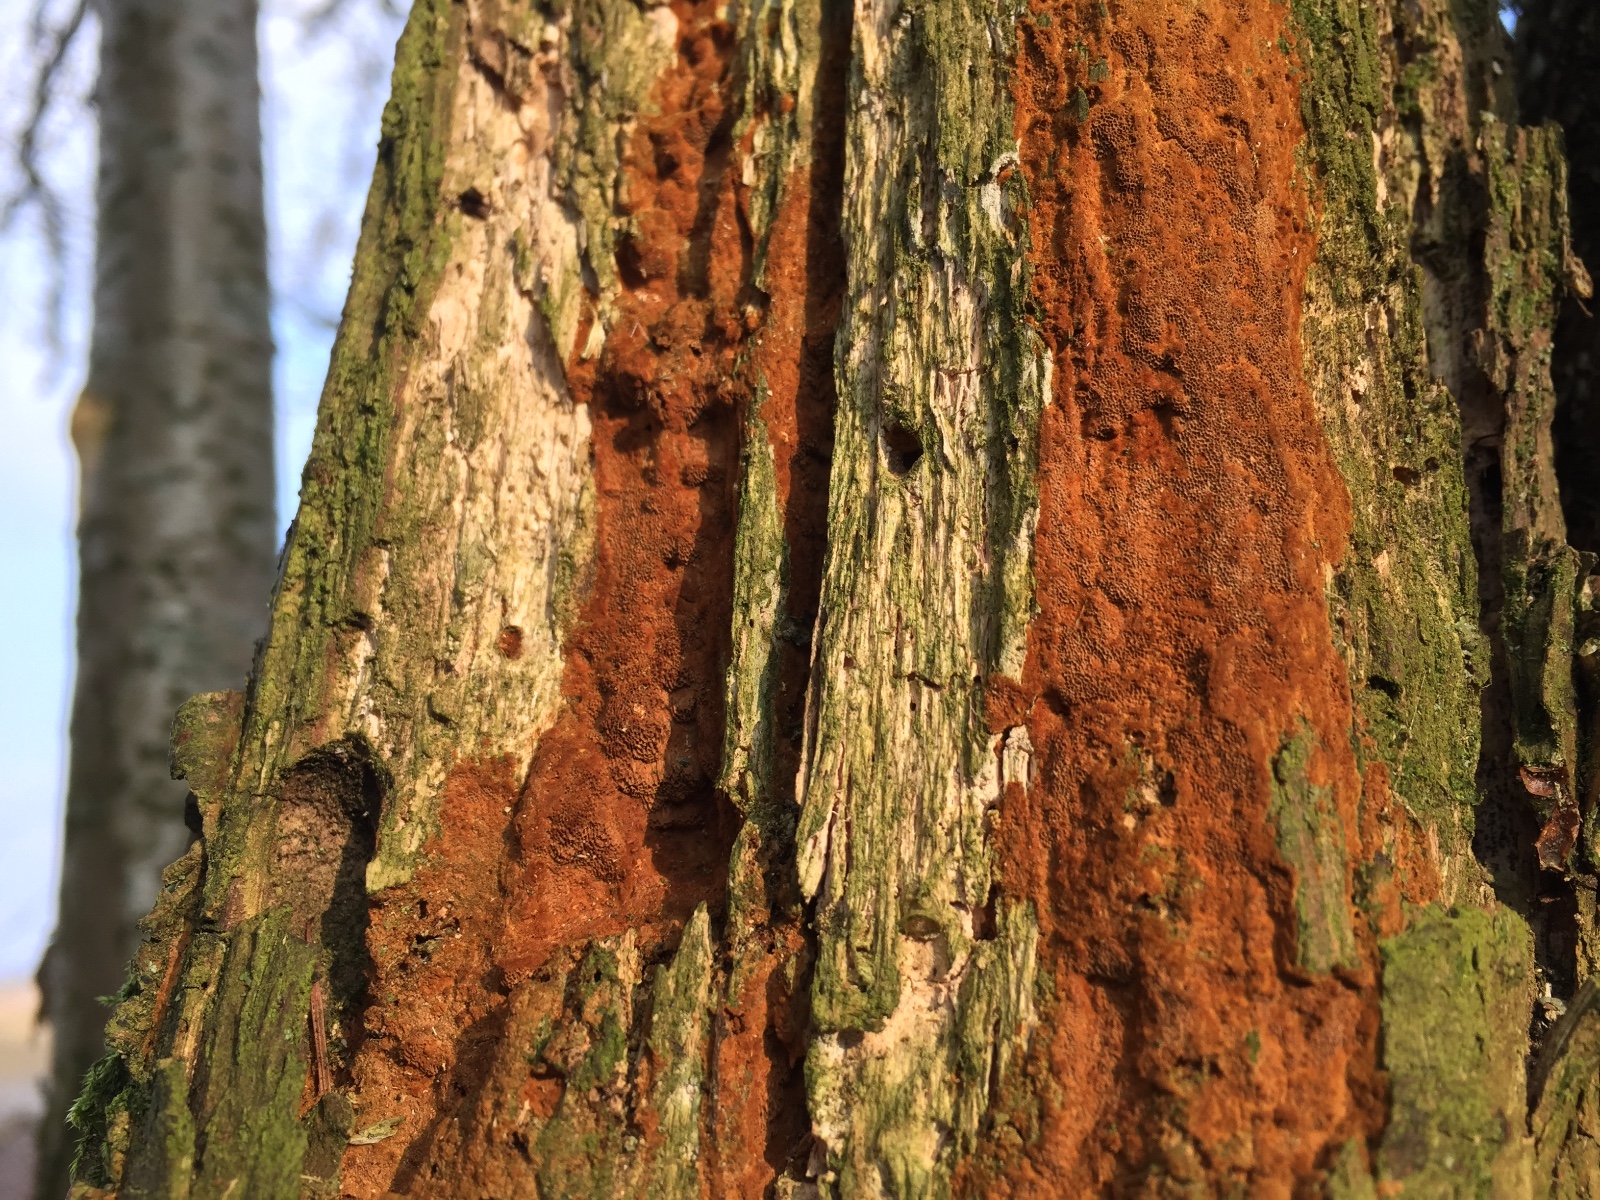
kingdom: Fungi
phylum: Basidiomycota
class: Agaricomycetes
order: Hymenochaetales
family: Hymenochaetaceae
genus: Fuscoporia
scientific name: Fuscoporia ferrea
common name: skorpe-ildporesvamp
